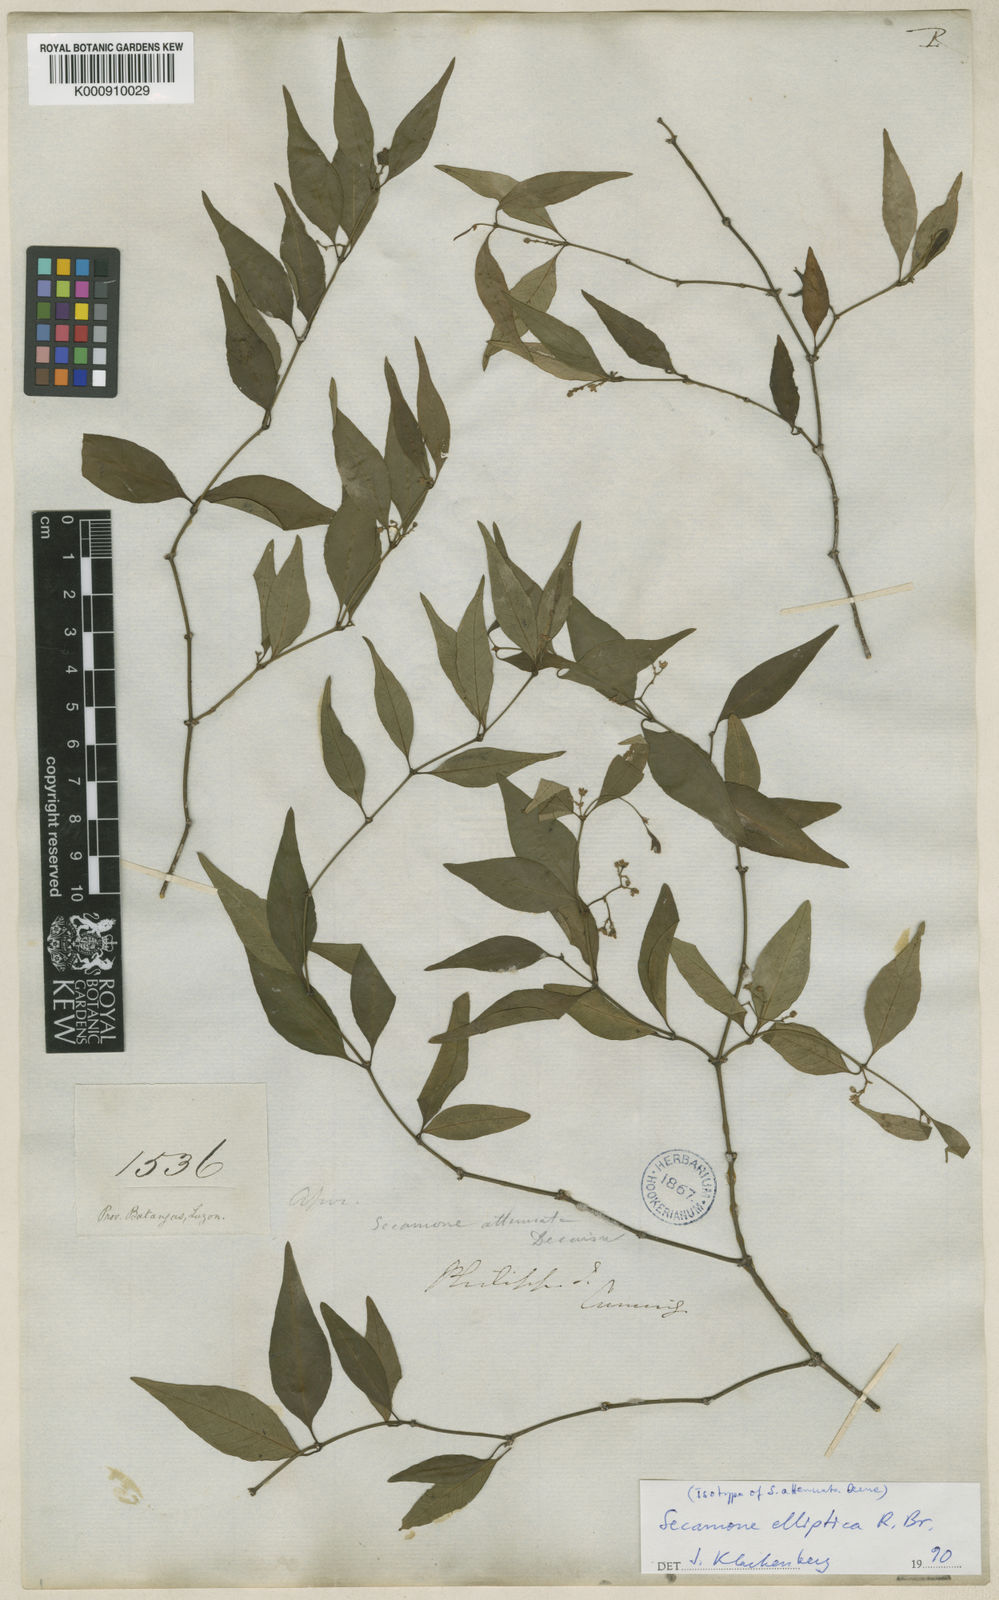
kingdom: Plantae
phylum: Tracheophyta
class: Magnoliopsida
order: Gentianales
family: Apocynaceae
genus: Secamone
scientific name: Secamone elliptica
